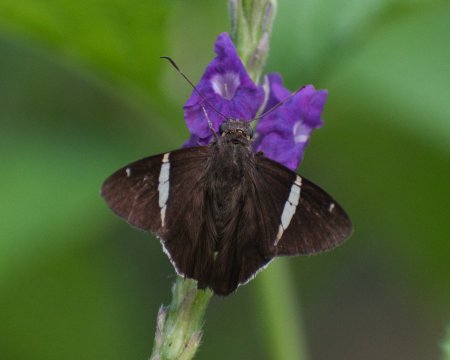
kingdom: Animalia
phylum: Arthropoda
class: Insecta
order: Lepidoptera
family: Hesperiidae
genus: Autochton
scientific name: Autochton longipennis
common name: Spike Banded-Skipper
